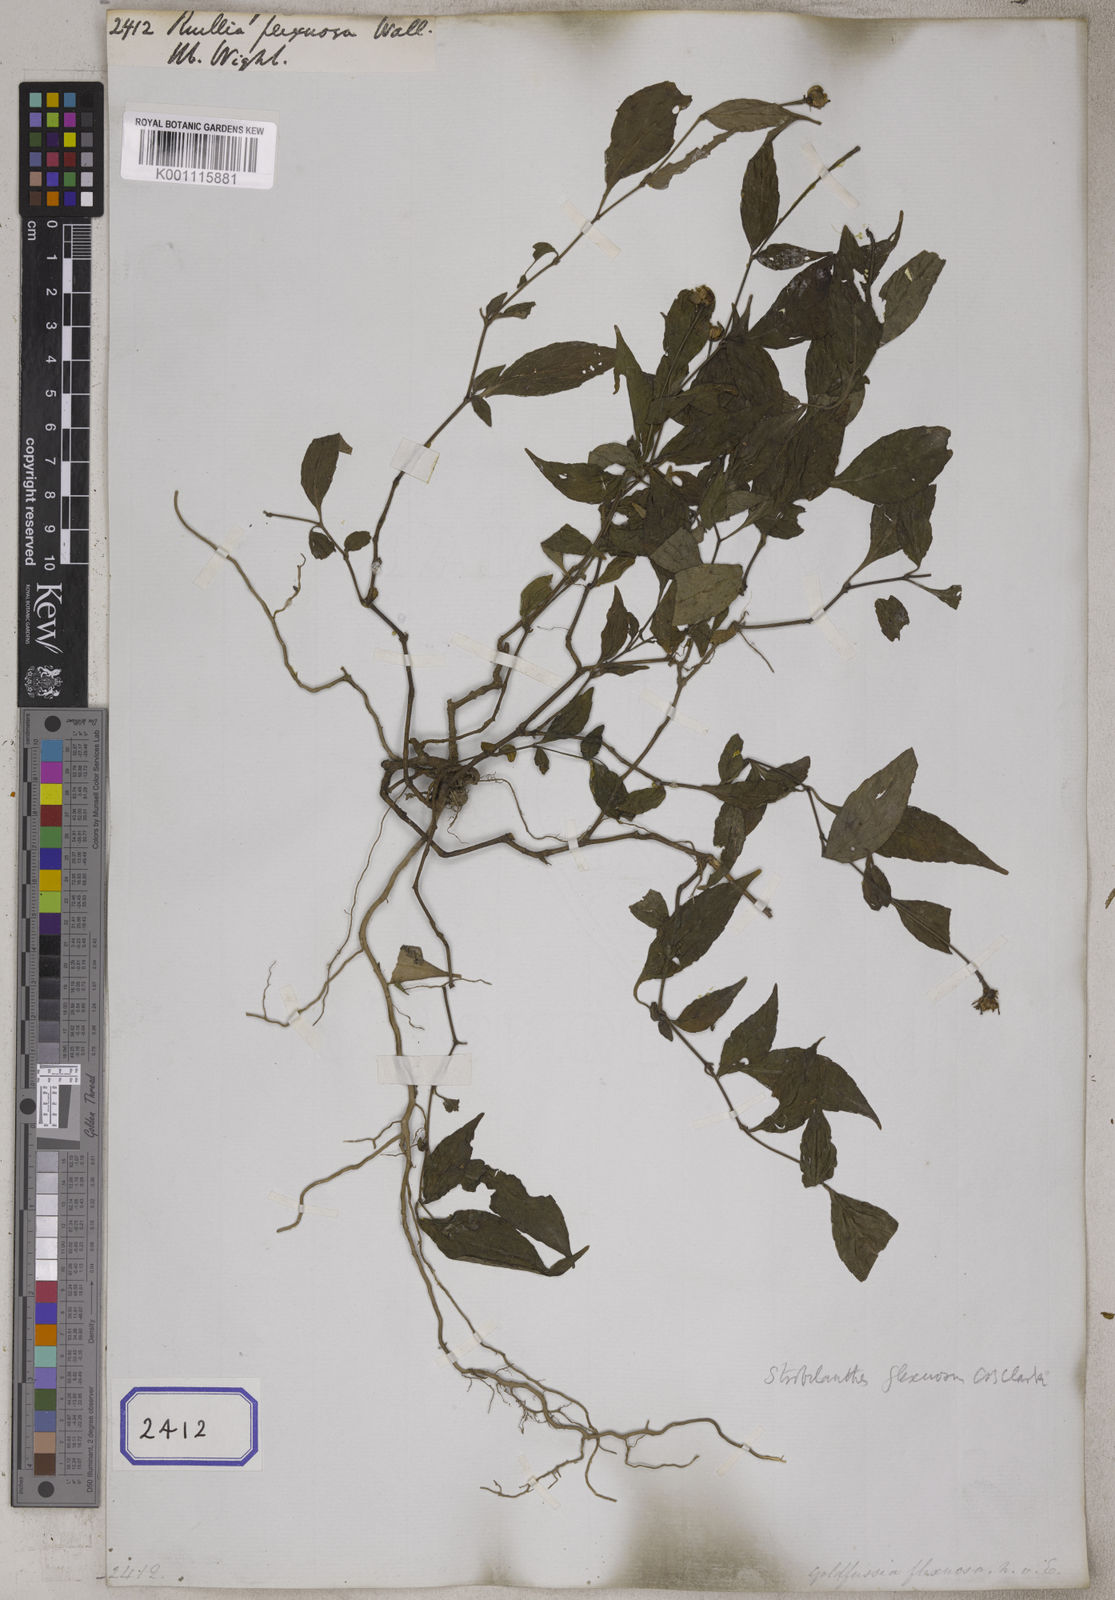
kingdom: Plantae
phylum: Tracheophyta
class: Magnoliopsida
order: Lamiales
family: Acanthaceae
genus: Strobilanthes
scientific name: Strobilanthes pentastemonoides
